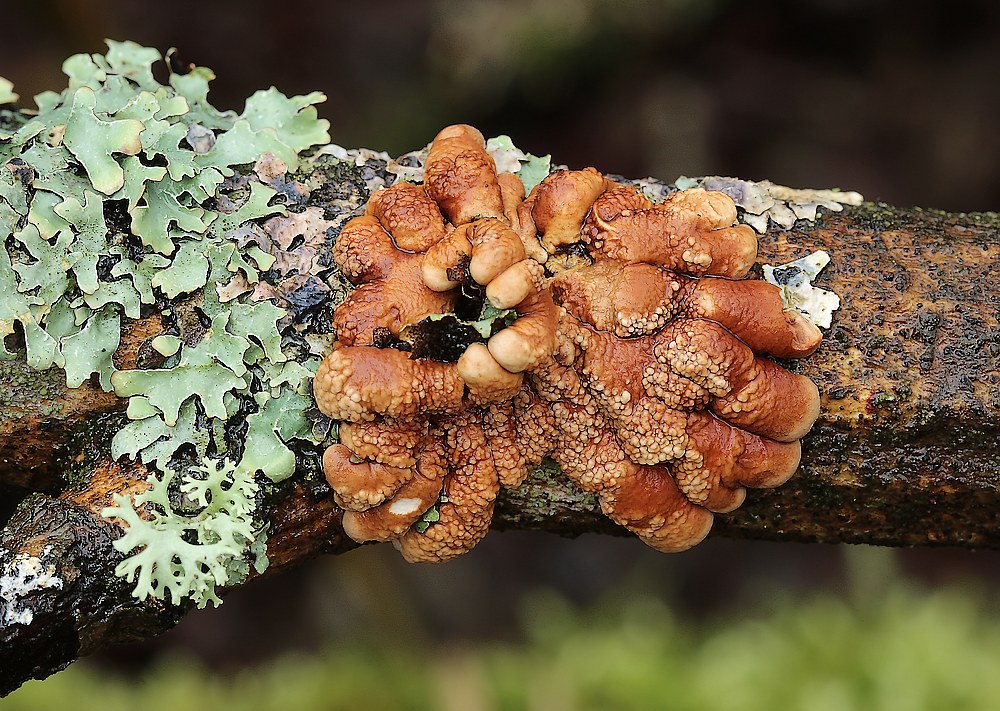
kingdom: Fungi
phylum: Ascomycota
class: Sordariomycetes
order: Hypocreales
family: Hypocreaceae
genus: Hypocreopsis
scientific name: Hypocreopsis lichenoides
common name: pilfinger
